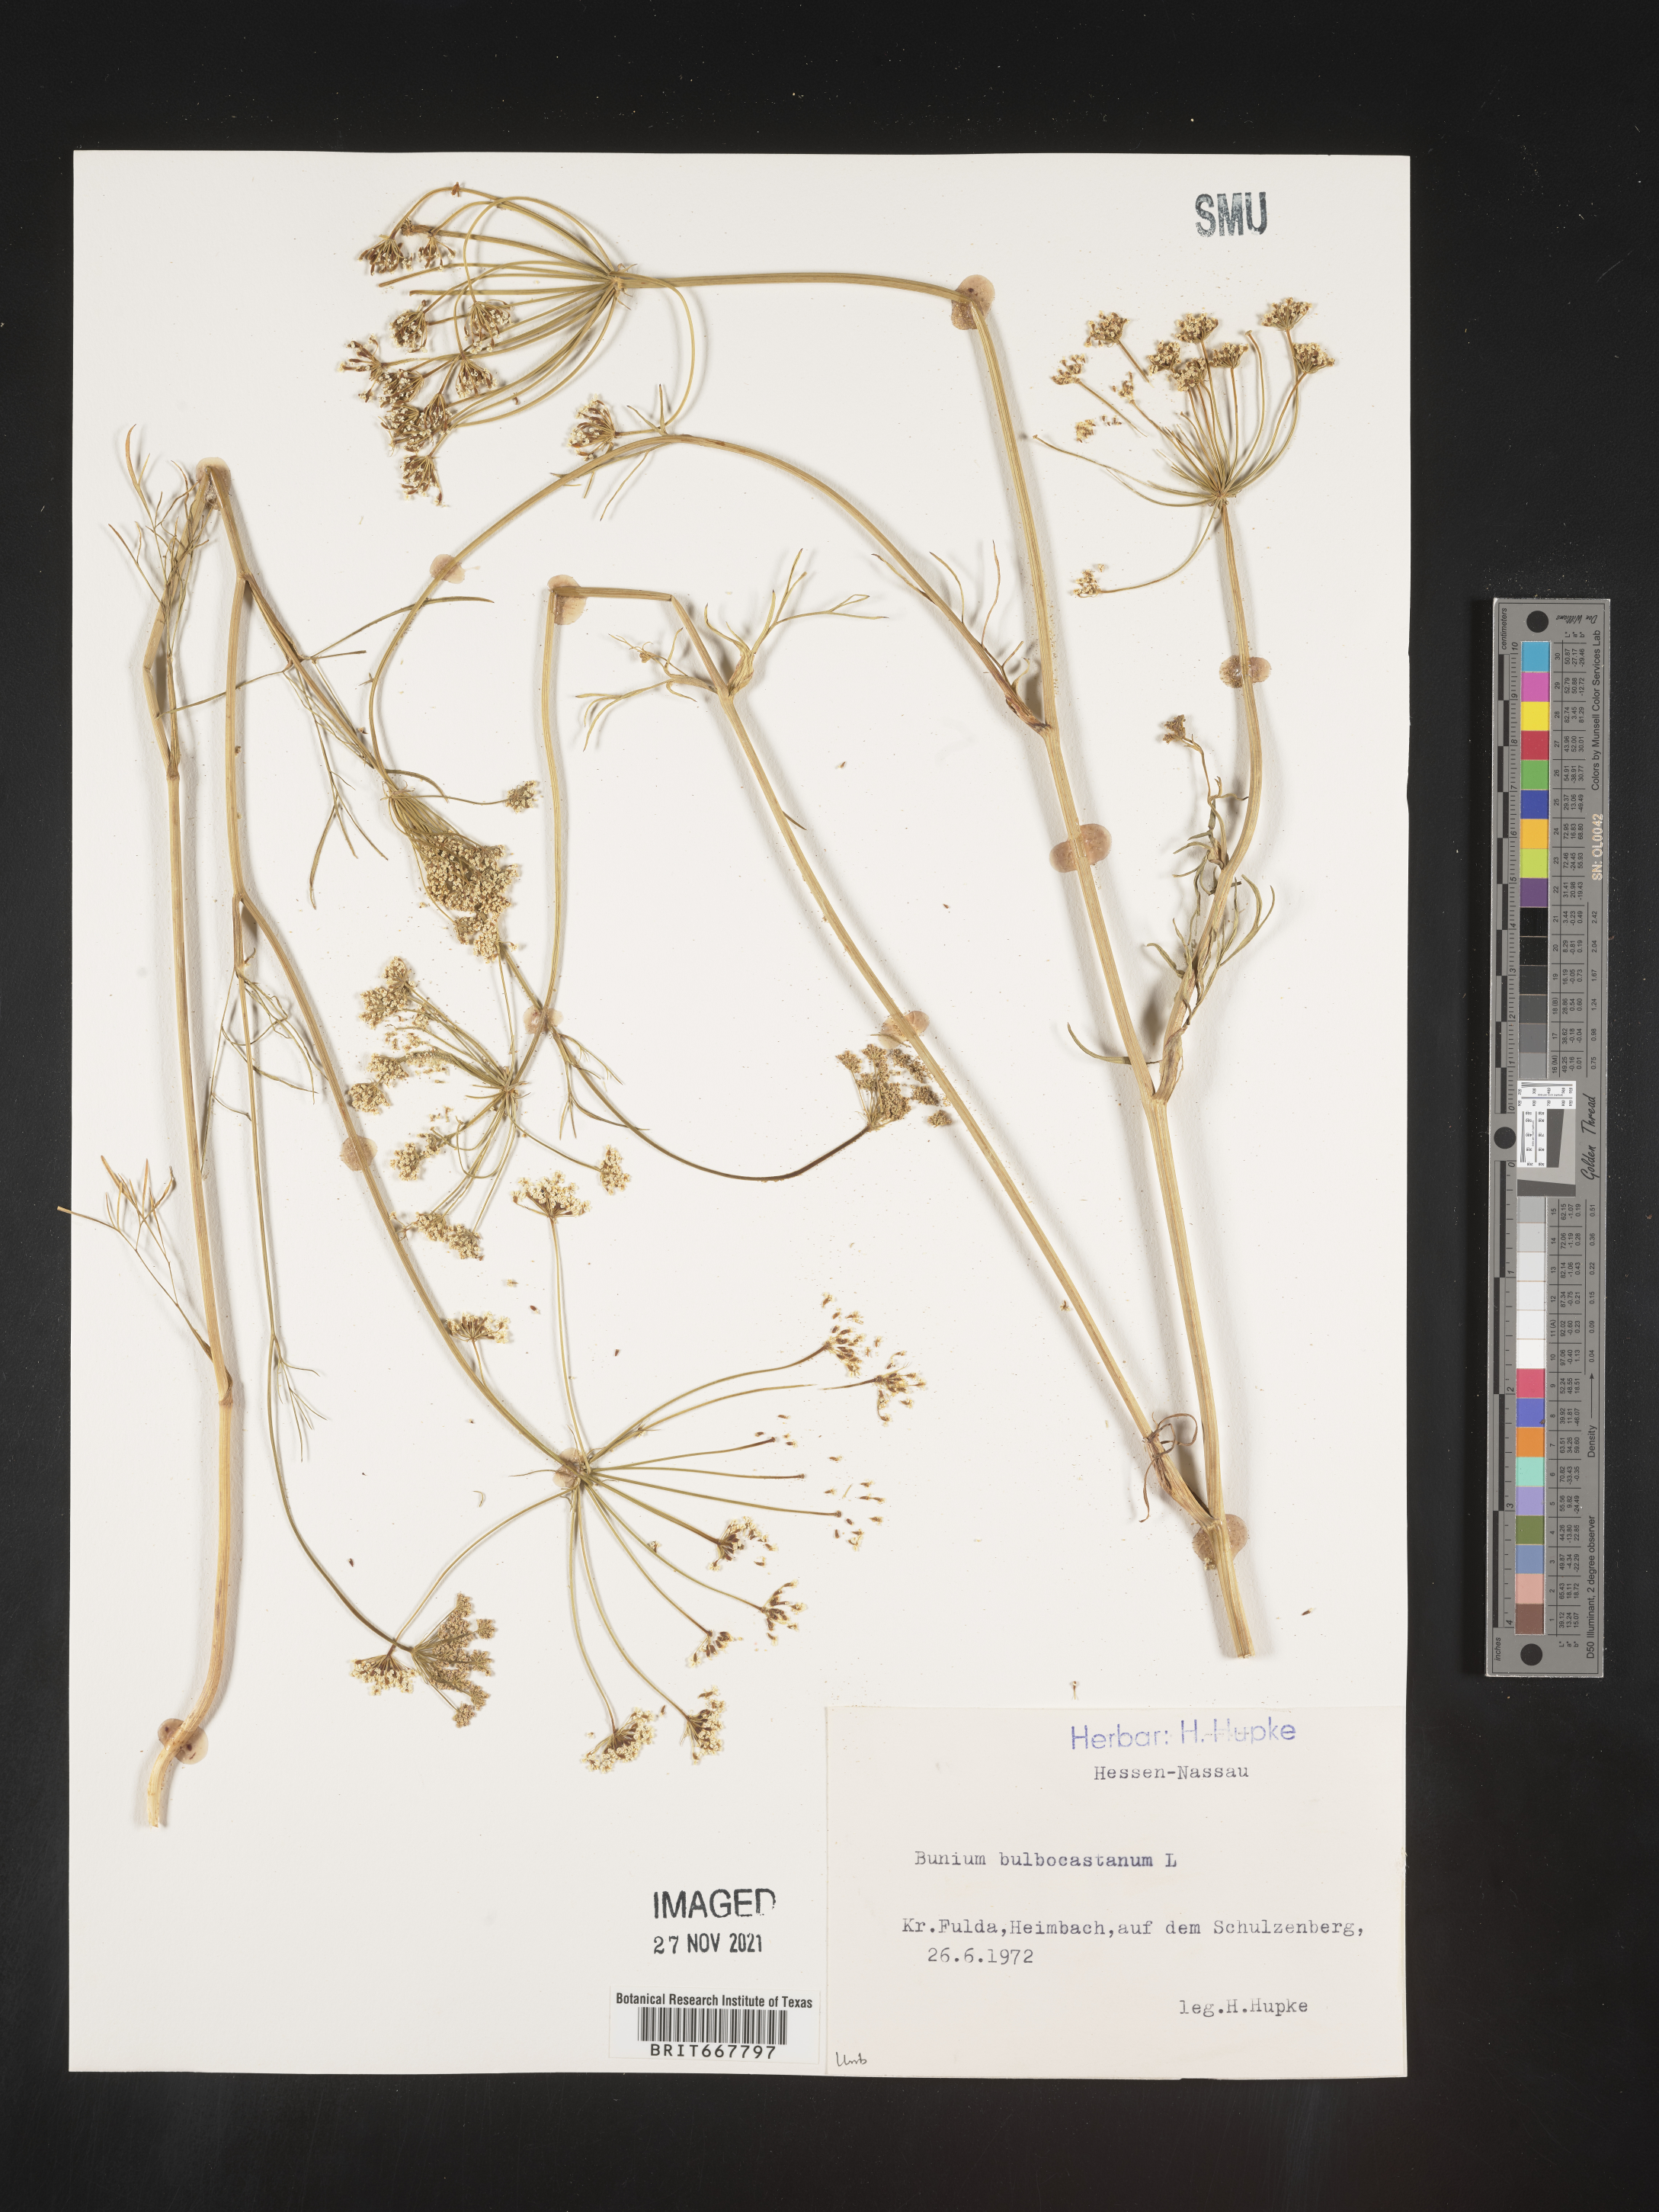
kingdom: Plantae
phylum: Tracheophyta
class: Magnoliopsida
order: Apiales
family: Apiaceae
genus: Bunium
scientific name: Bunium
